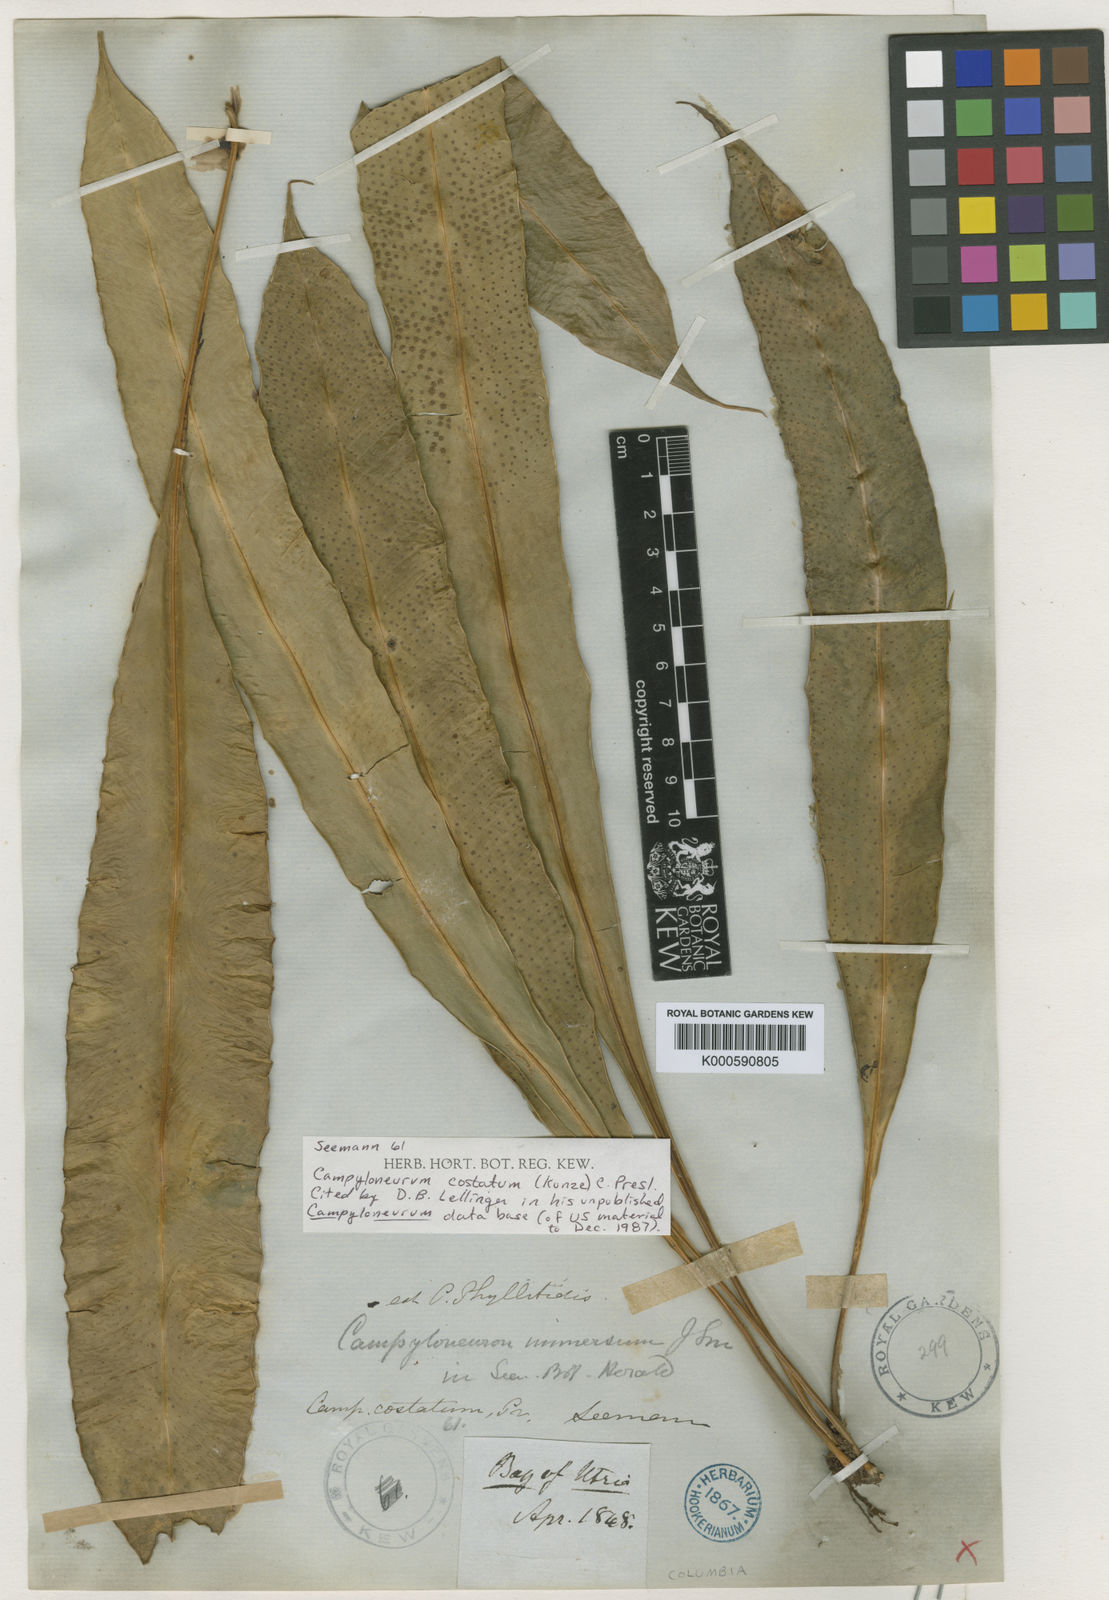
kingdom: Plantae
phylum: Tracheophyta
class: Polypodiopsida
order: Polypodiales
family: Polypodiaceae
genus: Campyloneurum
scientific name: Campyloneurum costatum
